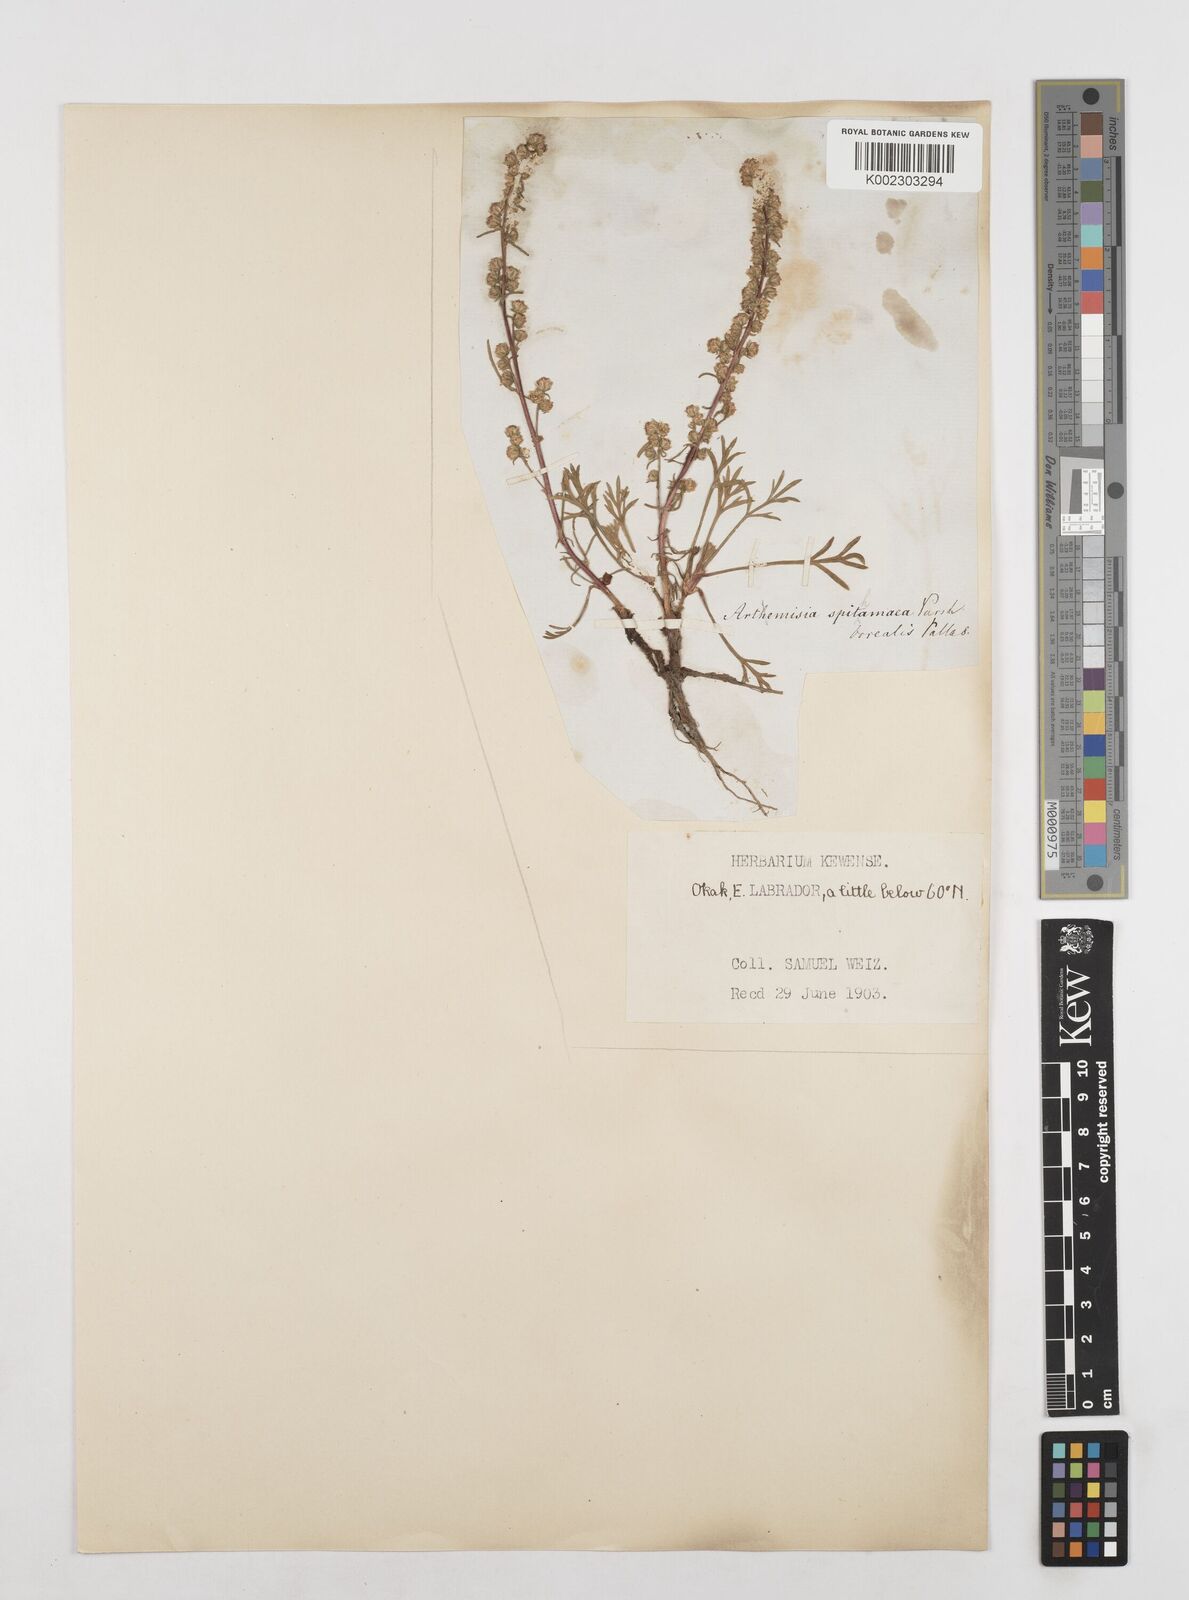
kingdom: Plantae
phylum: Tracheophyta
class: Magnoliopsida
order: Asterales
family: Asteraceae
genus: Artemisia
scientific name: Artemisia borealis
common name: Boreal sage
